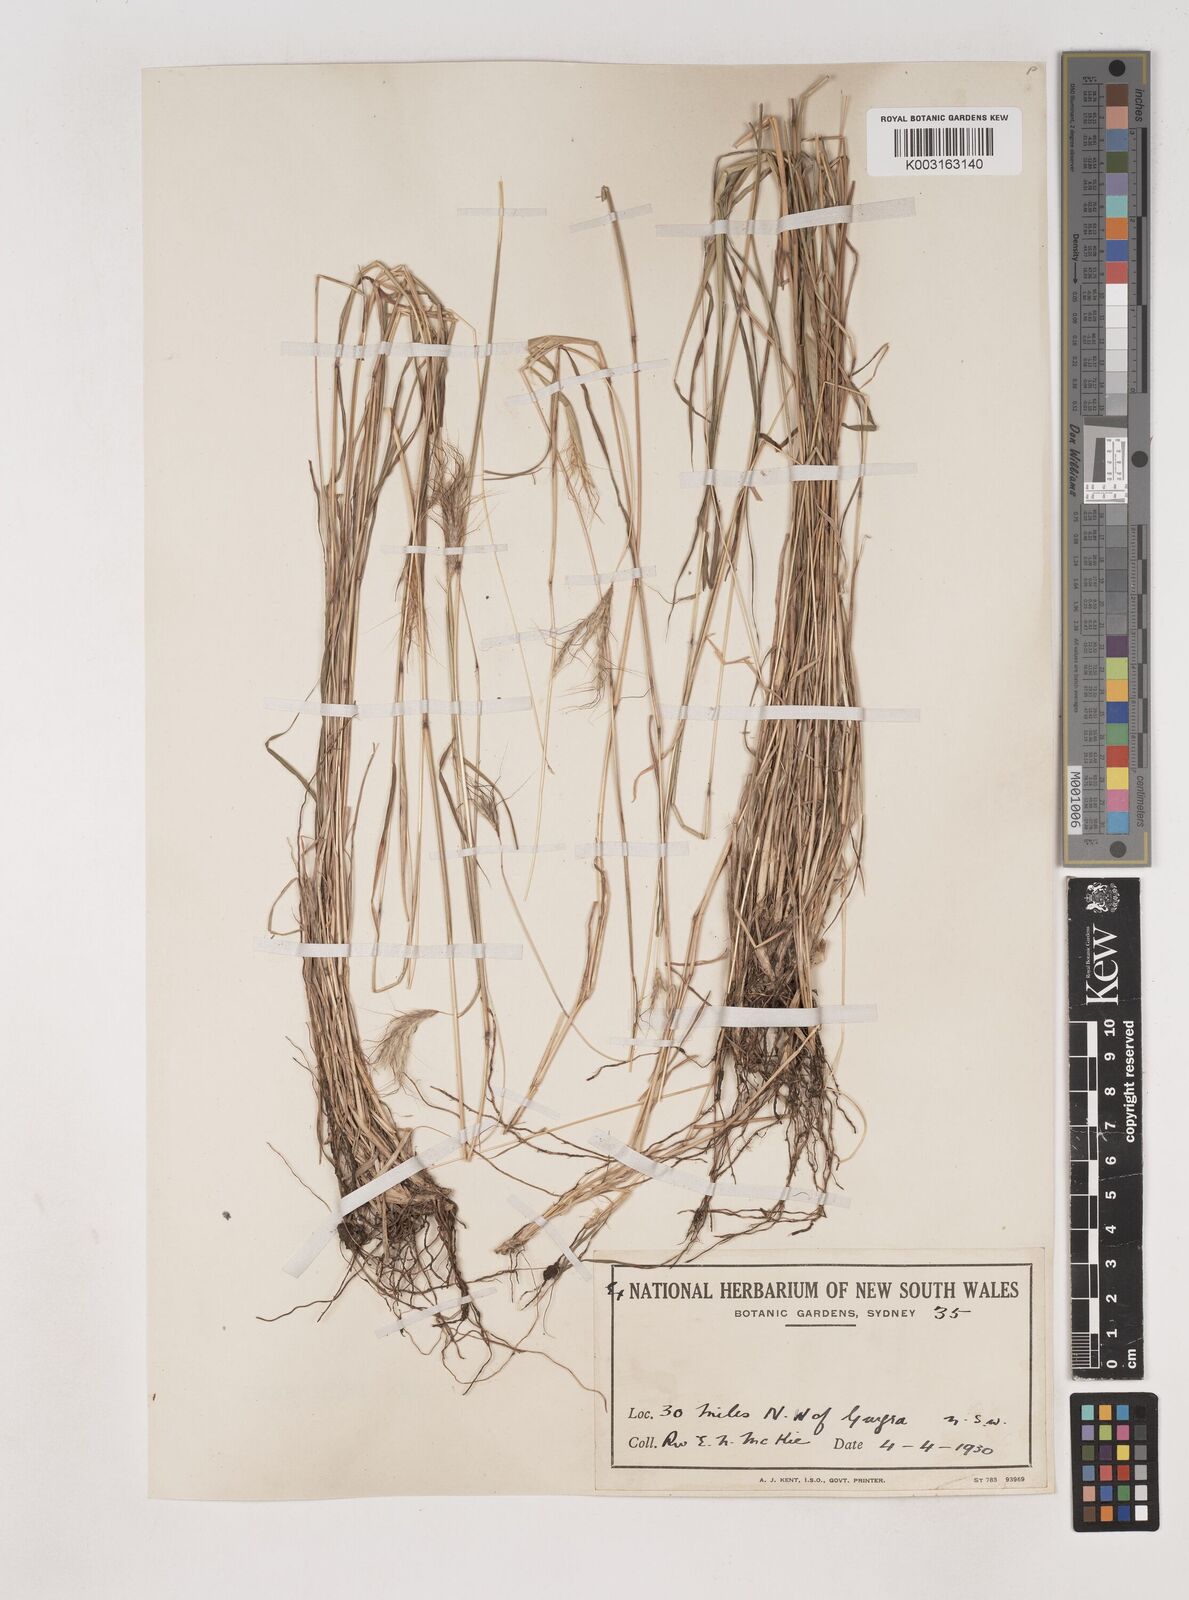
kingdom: Plantae
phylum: Tracheophyta
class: Liliopsida
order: Poales
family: Poaceae
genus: Dichanthium
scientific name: Dichanthium sericeum
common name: Silky bluestem
